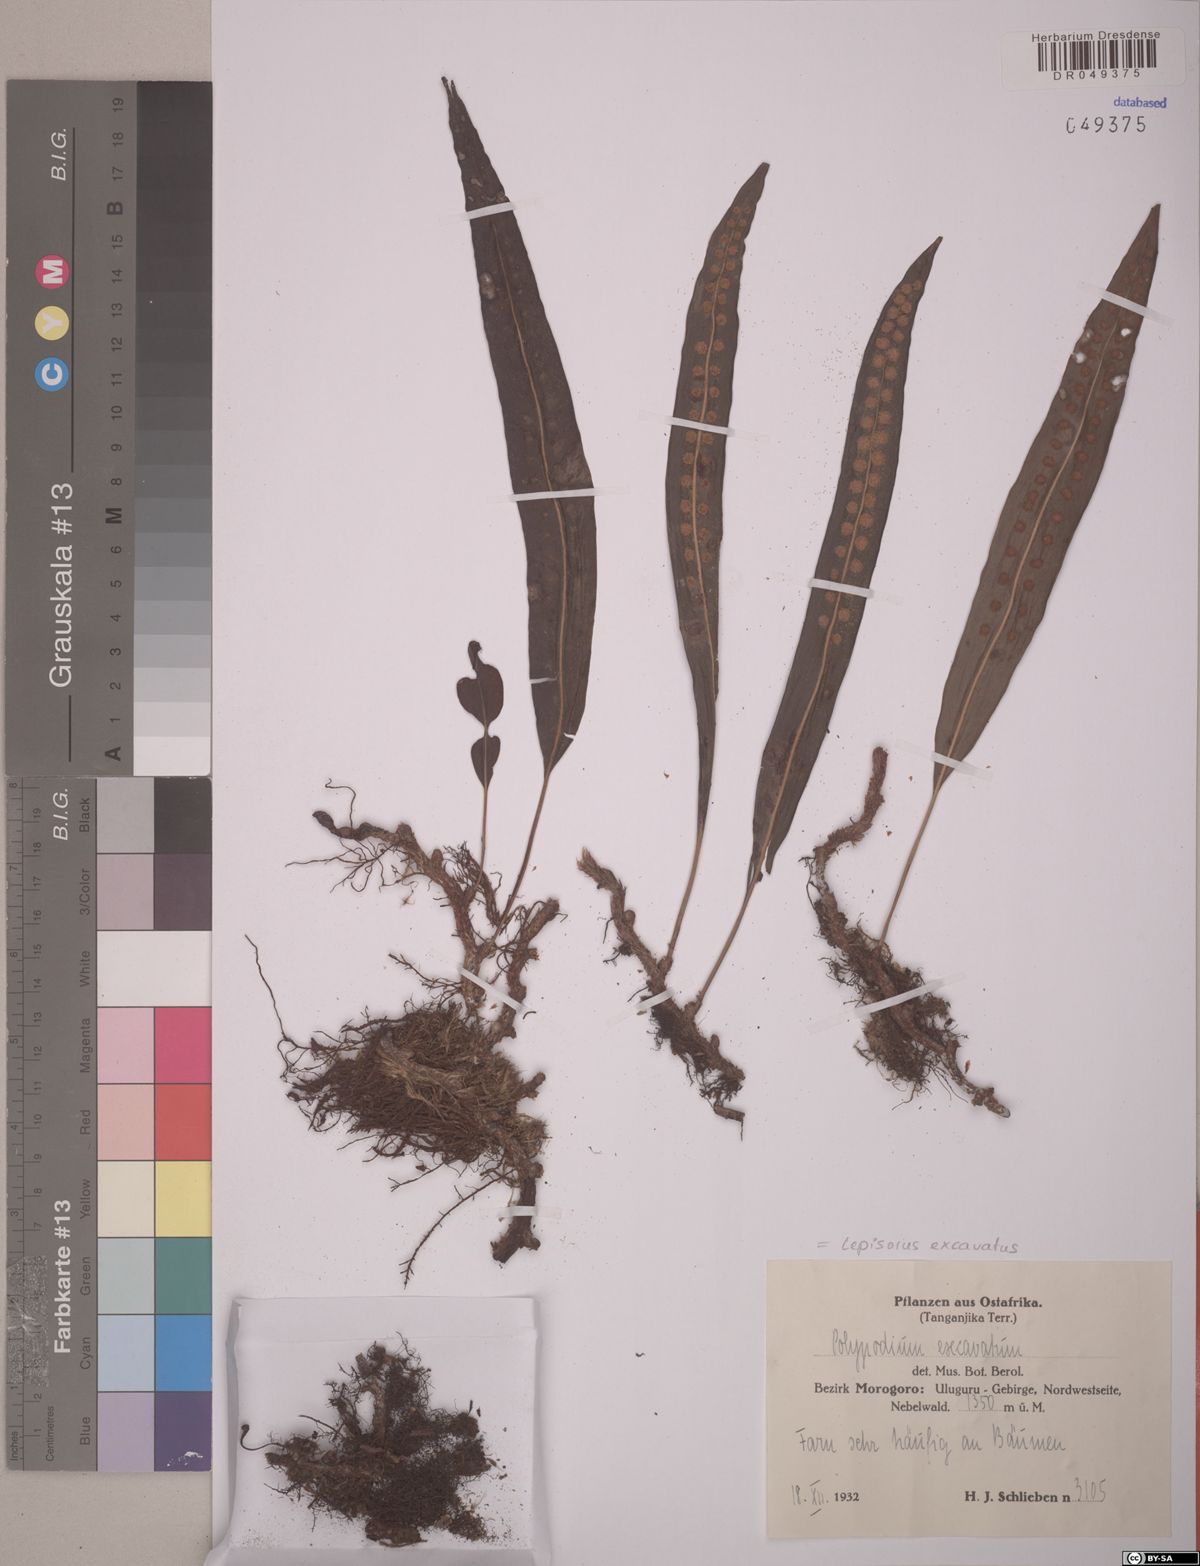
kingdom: Plantae
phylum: Tracheophyta
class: Polypodiopsida
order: Polypodiales
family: Polypodiaceae
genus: Lepisorus
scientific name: Lepisorus excavatus
